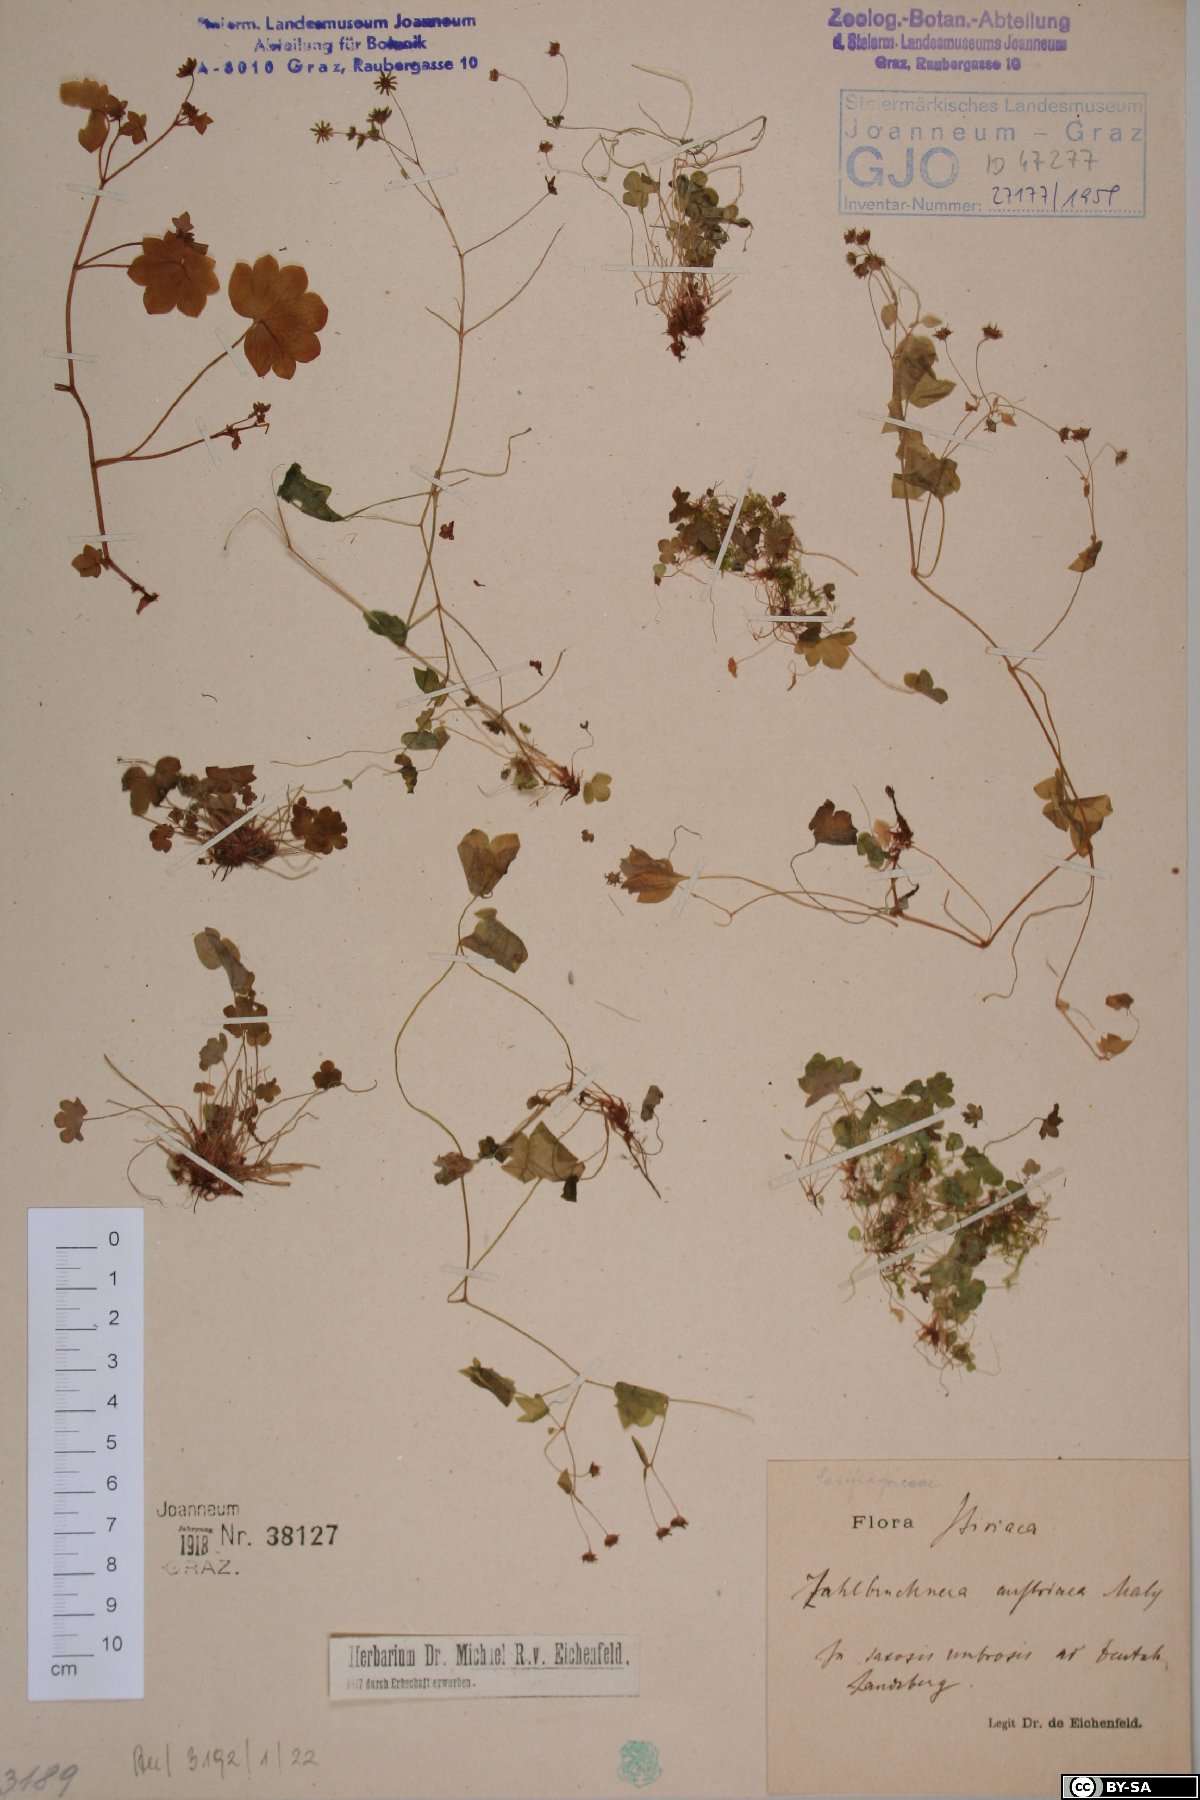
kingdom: Plantae
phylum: Tracheophyta
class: Magnoliopsida
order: Saxifragales
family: Saxifragaceae
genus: Saxifraga
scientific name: Saxifraga paradoxa
